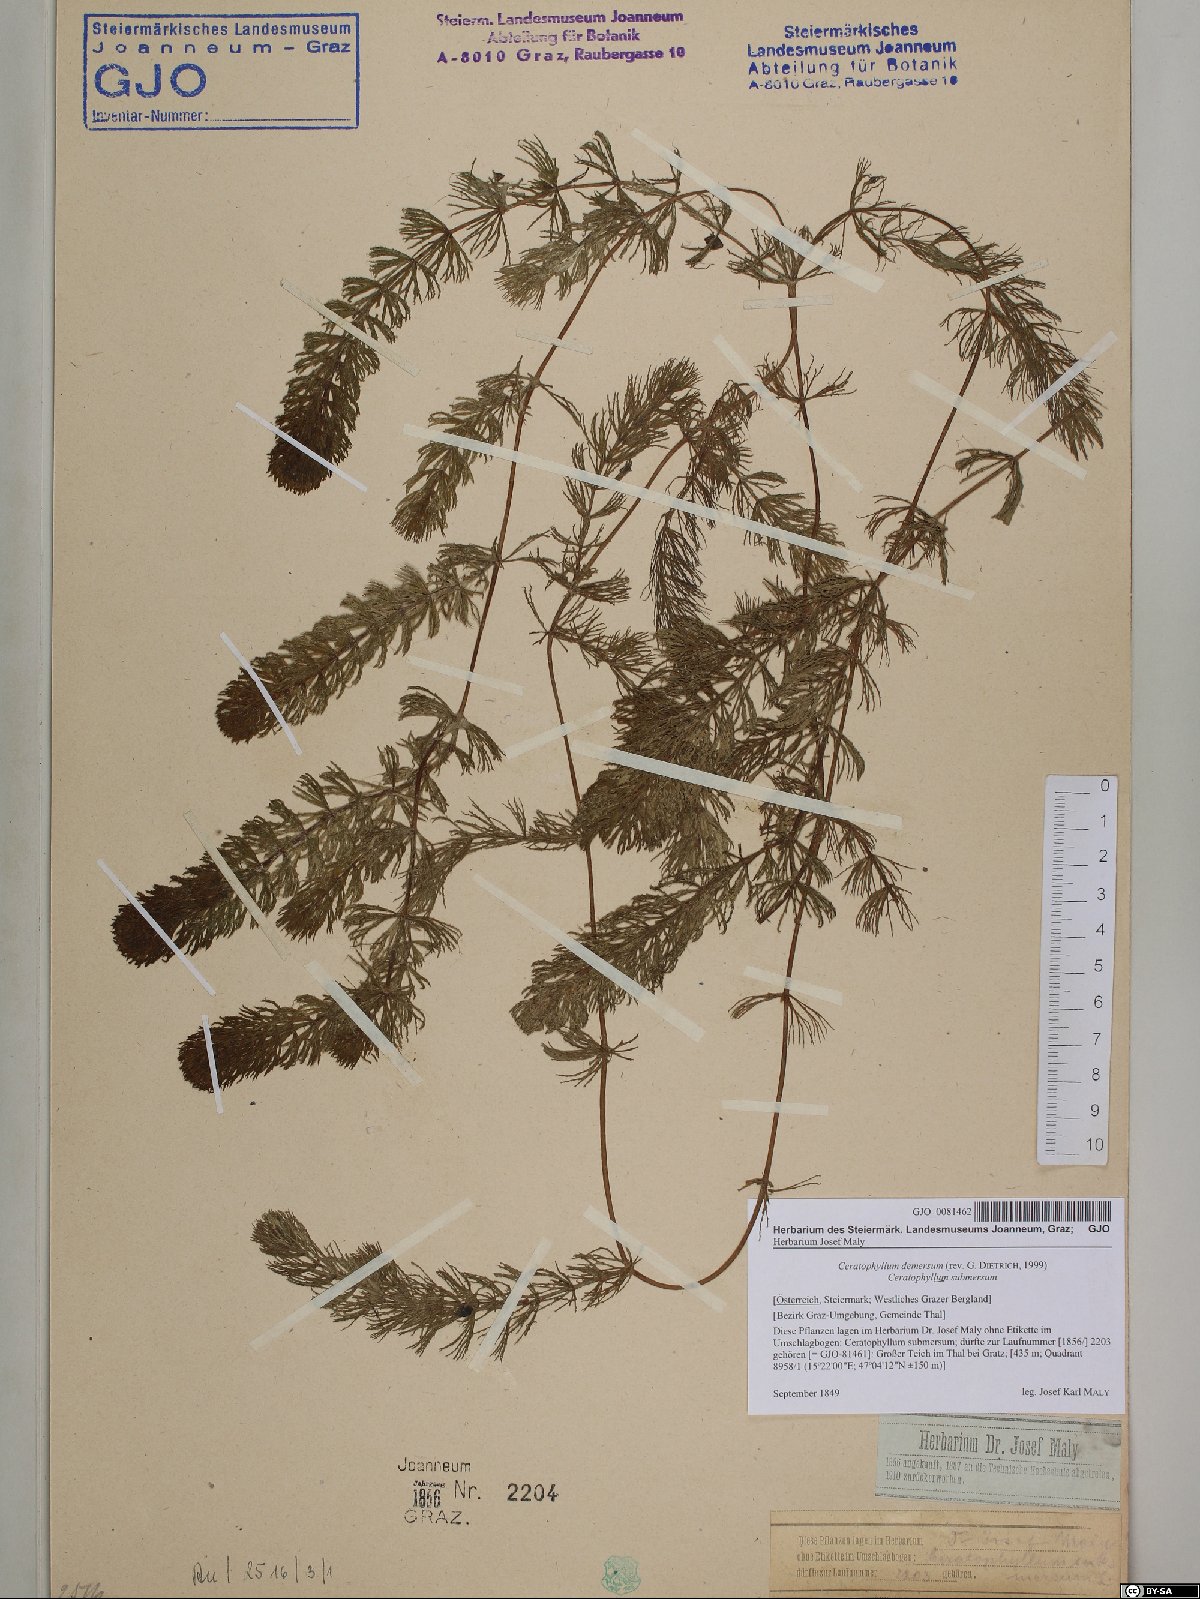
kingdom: Plantae
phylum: Tracheophyta
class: Magnoliopsida
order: Ceratophyllales
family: Ceratophyllaceae
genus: Ceratophyllum
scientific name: Ceratophyllum demersum
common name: Rigid hornwort
